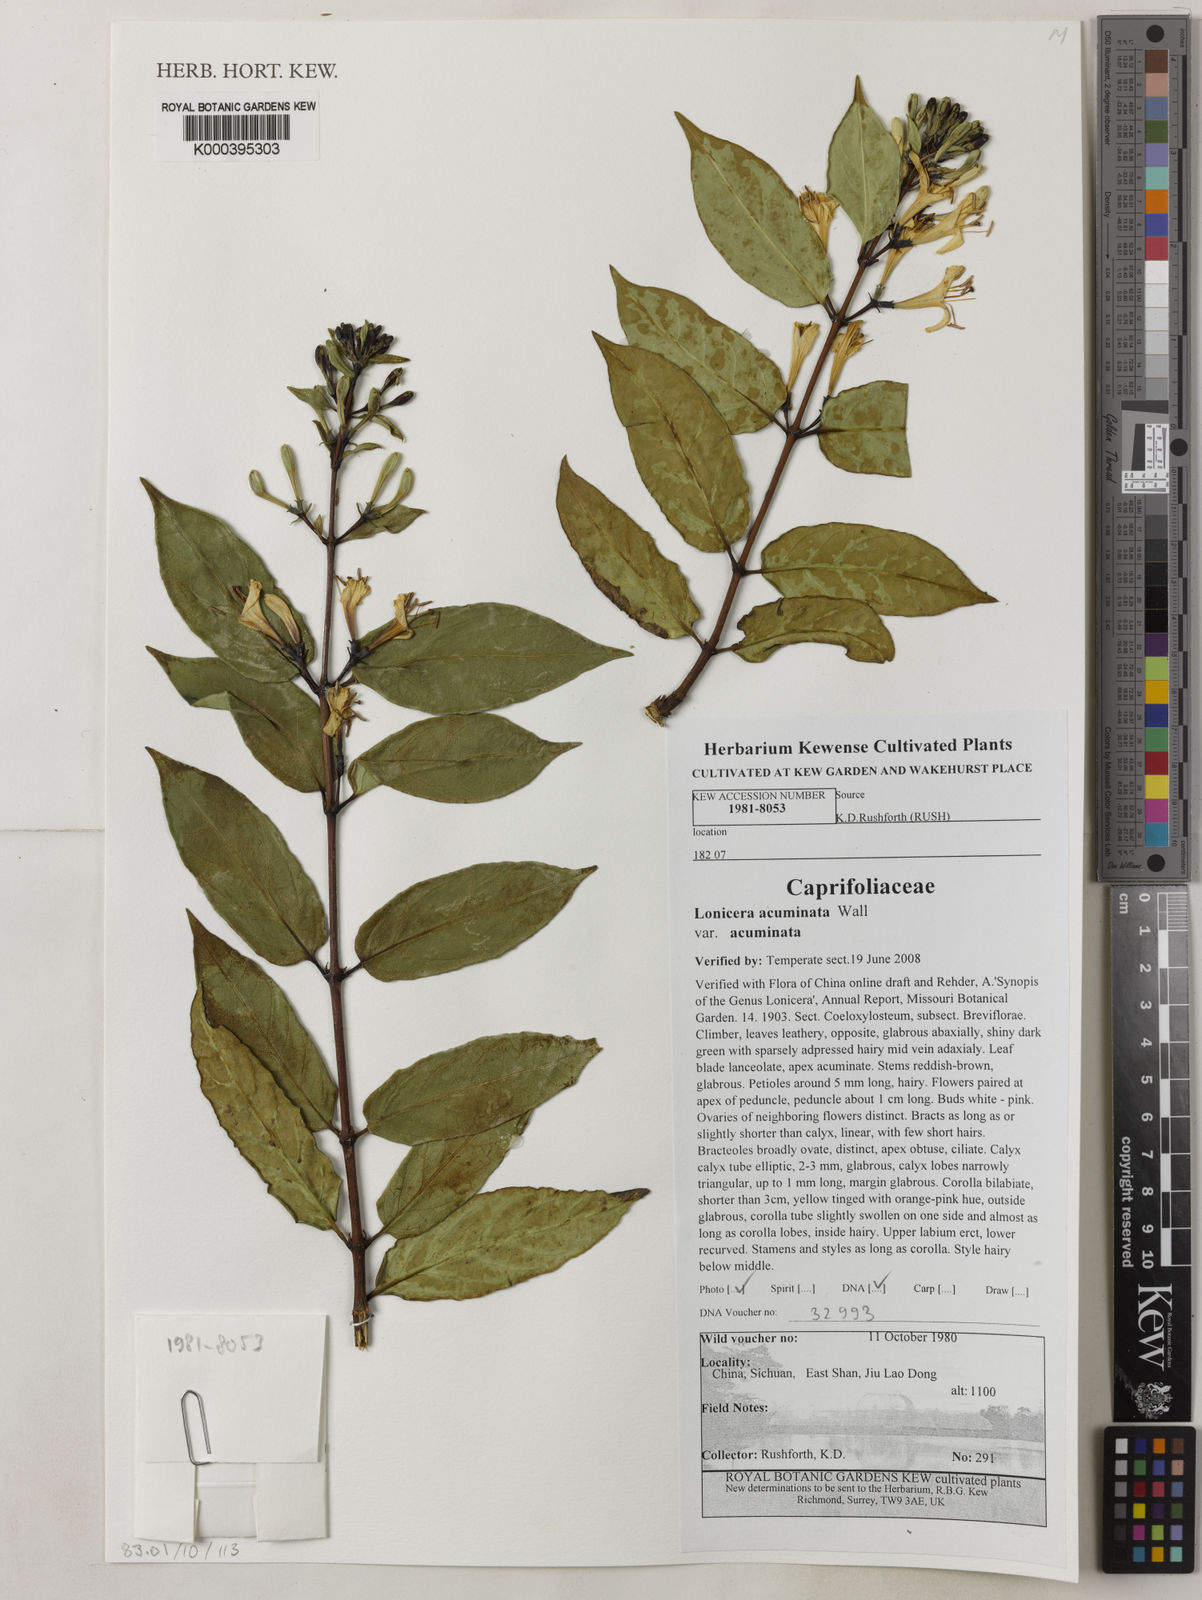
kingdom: Plantae
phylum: Tracheophyta
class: Magnoliopsida
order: Dipsacales
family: Caprifoliaceae
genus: Lonicera
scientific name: Lonicera acuminata
